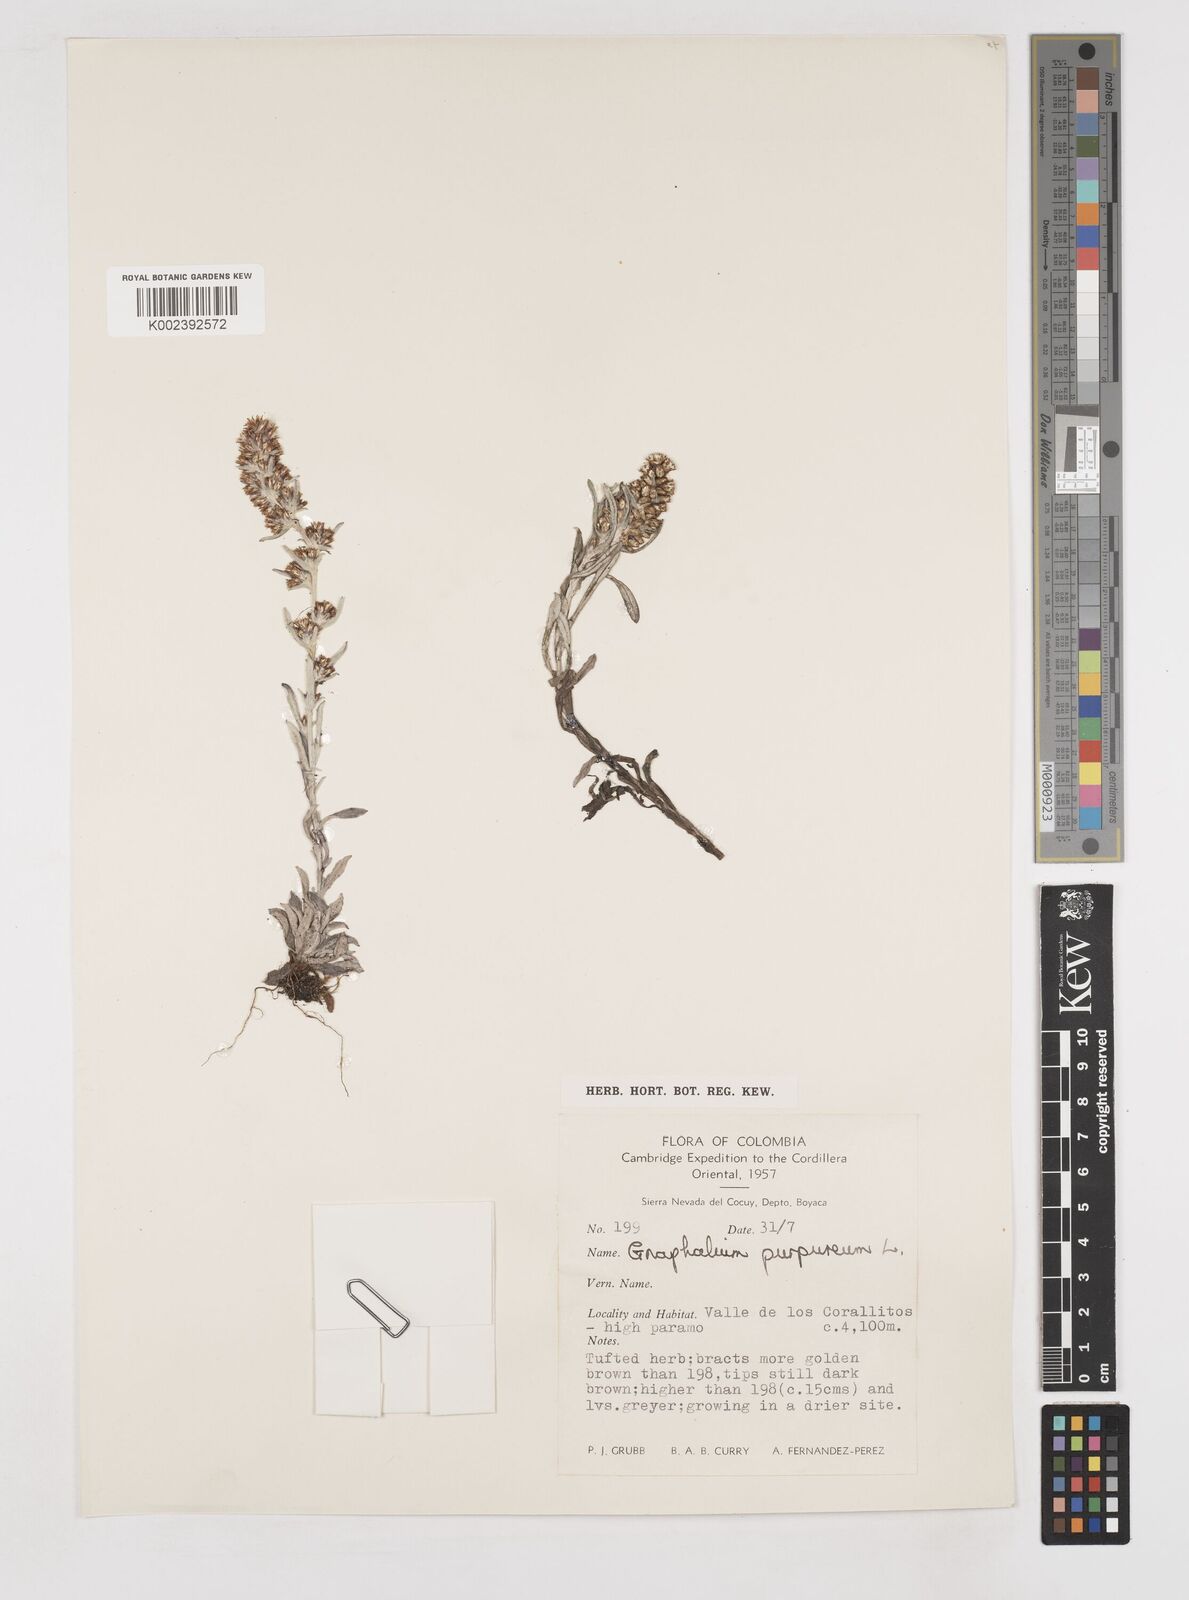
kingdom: Plantae
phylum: Tracheophyta
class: Magnoliopsida
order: Asterales
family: Asteraceae
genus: Pseudognaphalium
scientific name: Pseudognaphalium purpurascens
